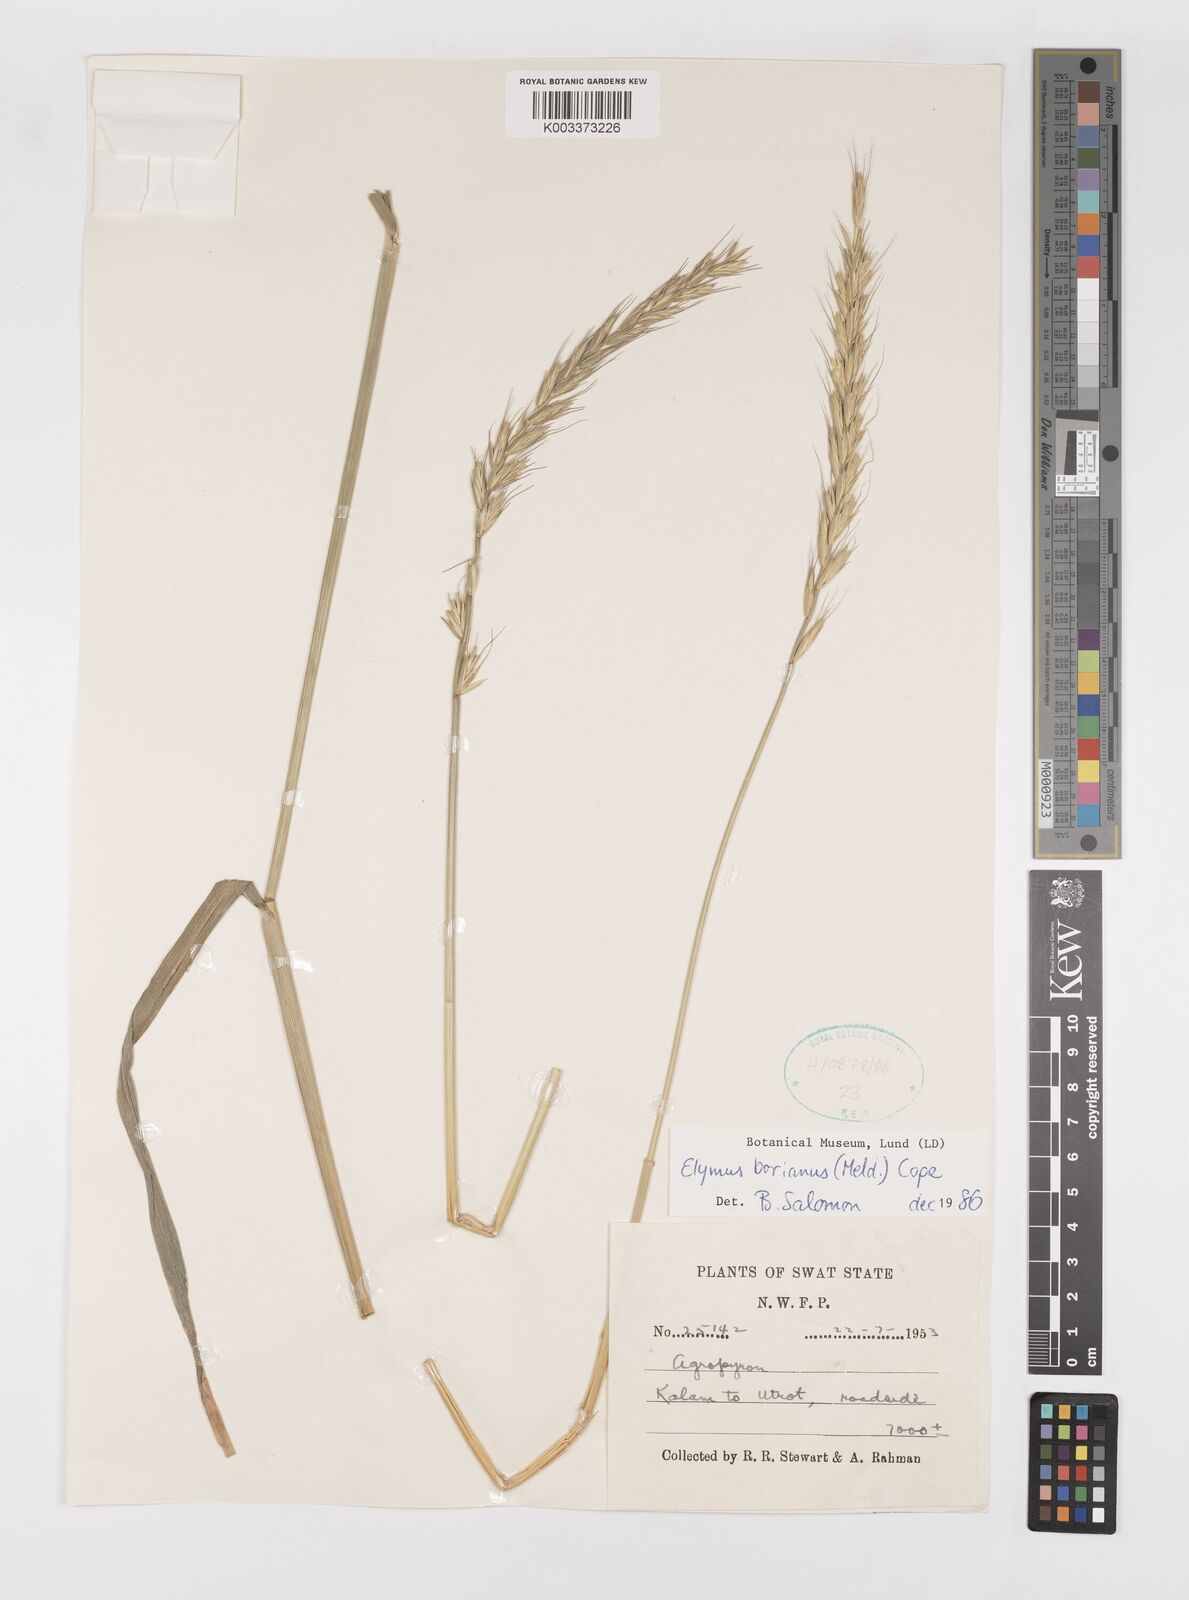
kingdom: Plantae
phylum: Tracheophyta
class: Liliopsida
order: Poales
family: Poaceae
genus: Elymus
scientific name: Elymus borianus
